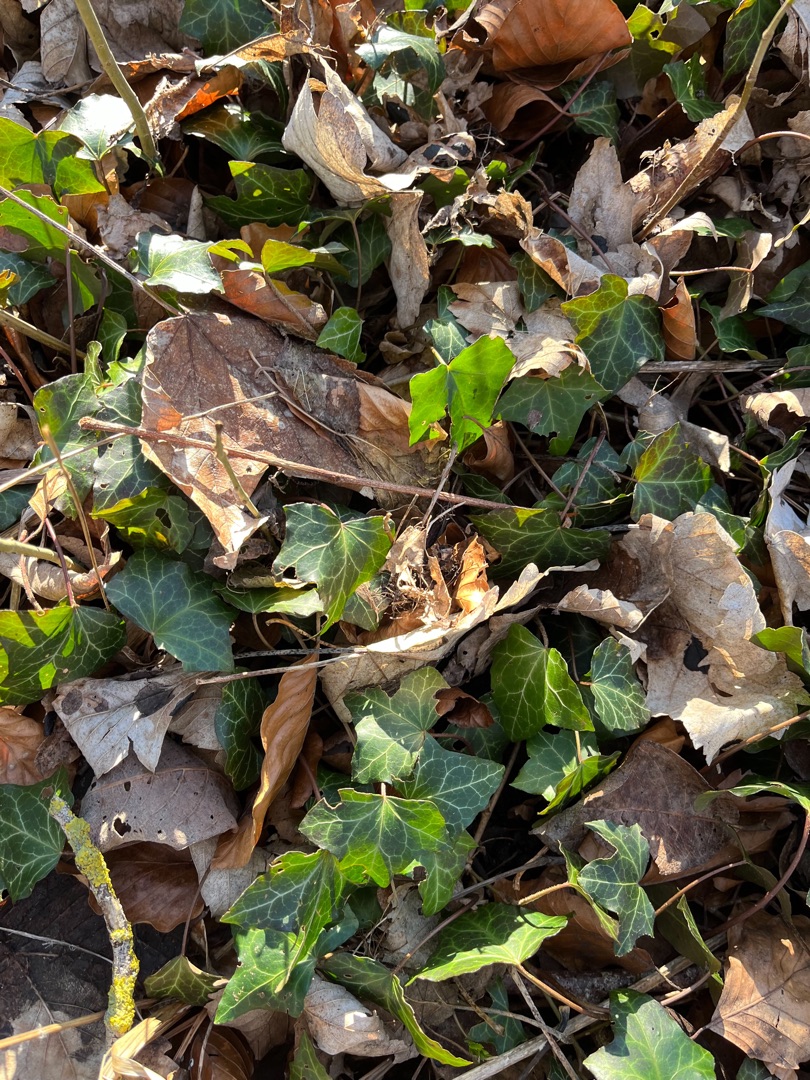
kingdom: Plantae
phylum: Tracheophyta
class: Magnoliopsida
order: Apiales
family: Araliaceae
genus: Hedera
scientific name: Hedera helix
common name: Vedbend
